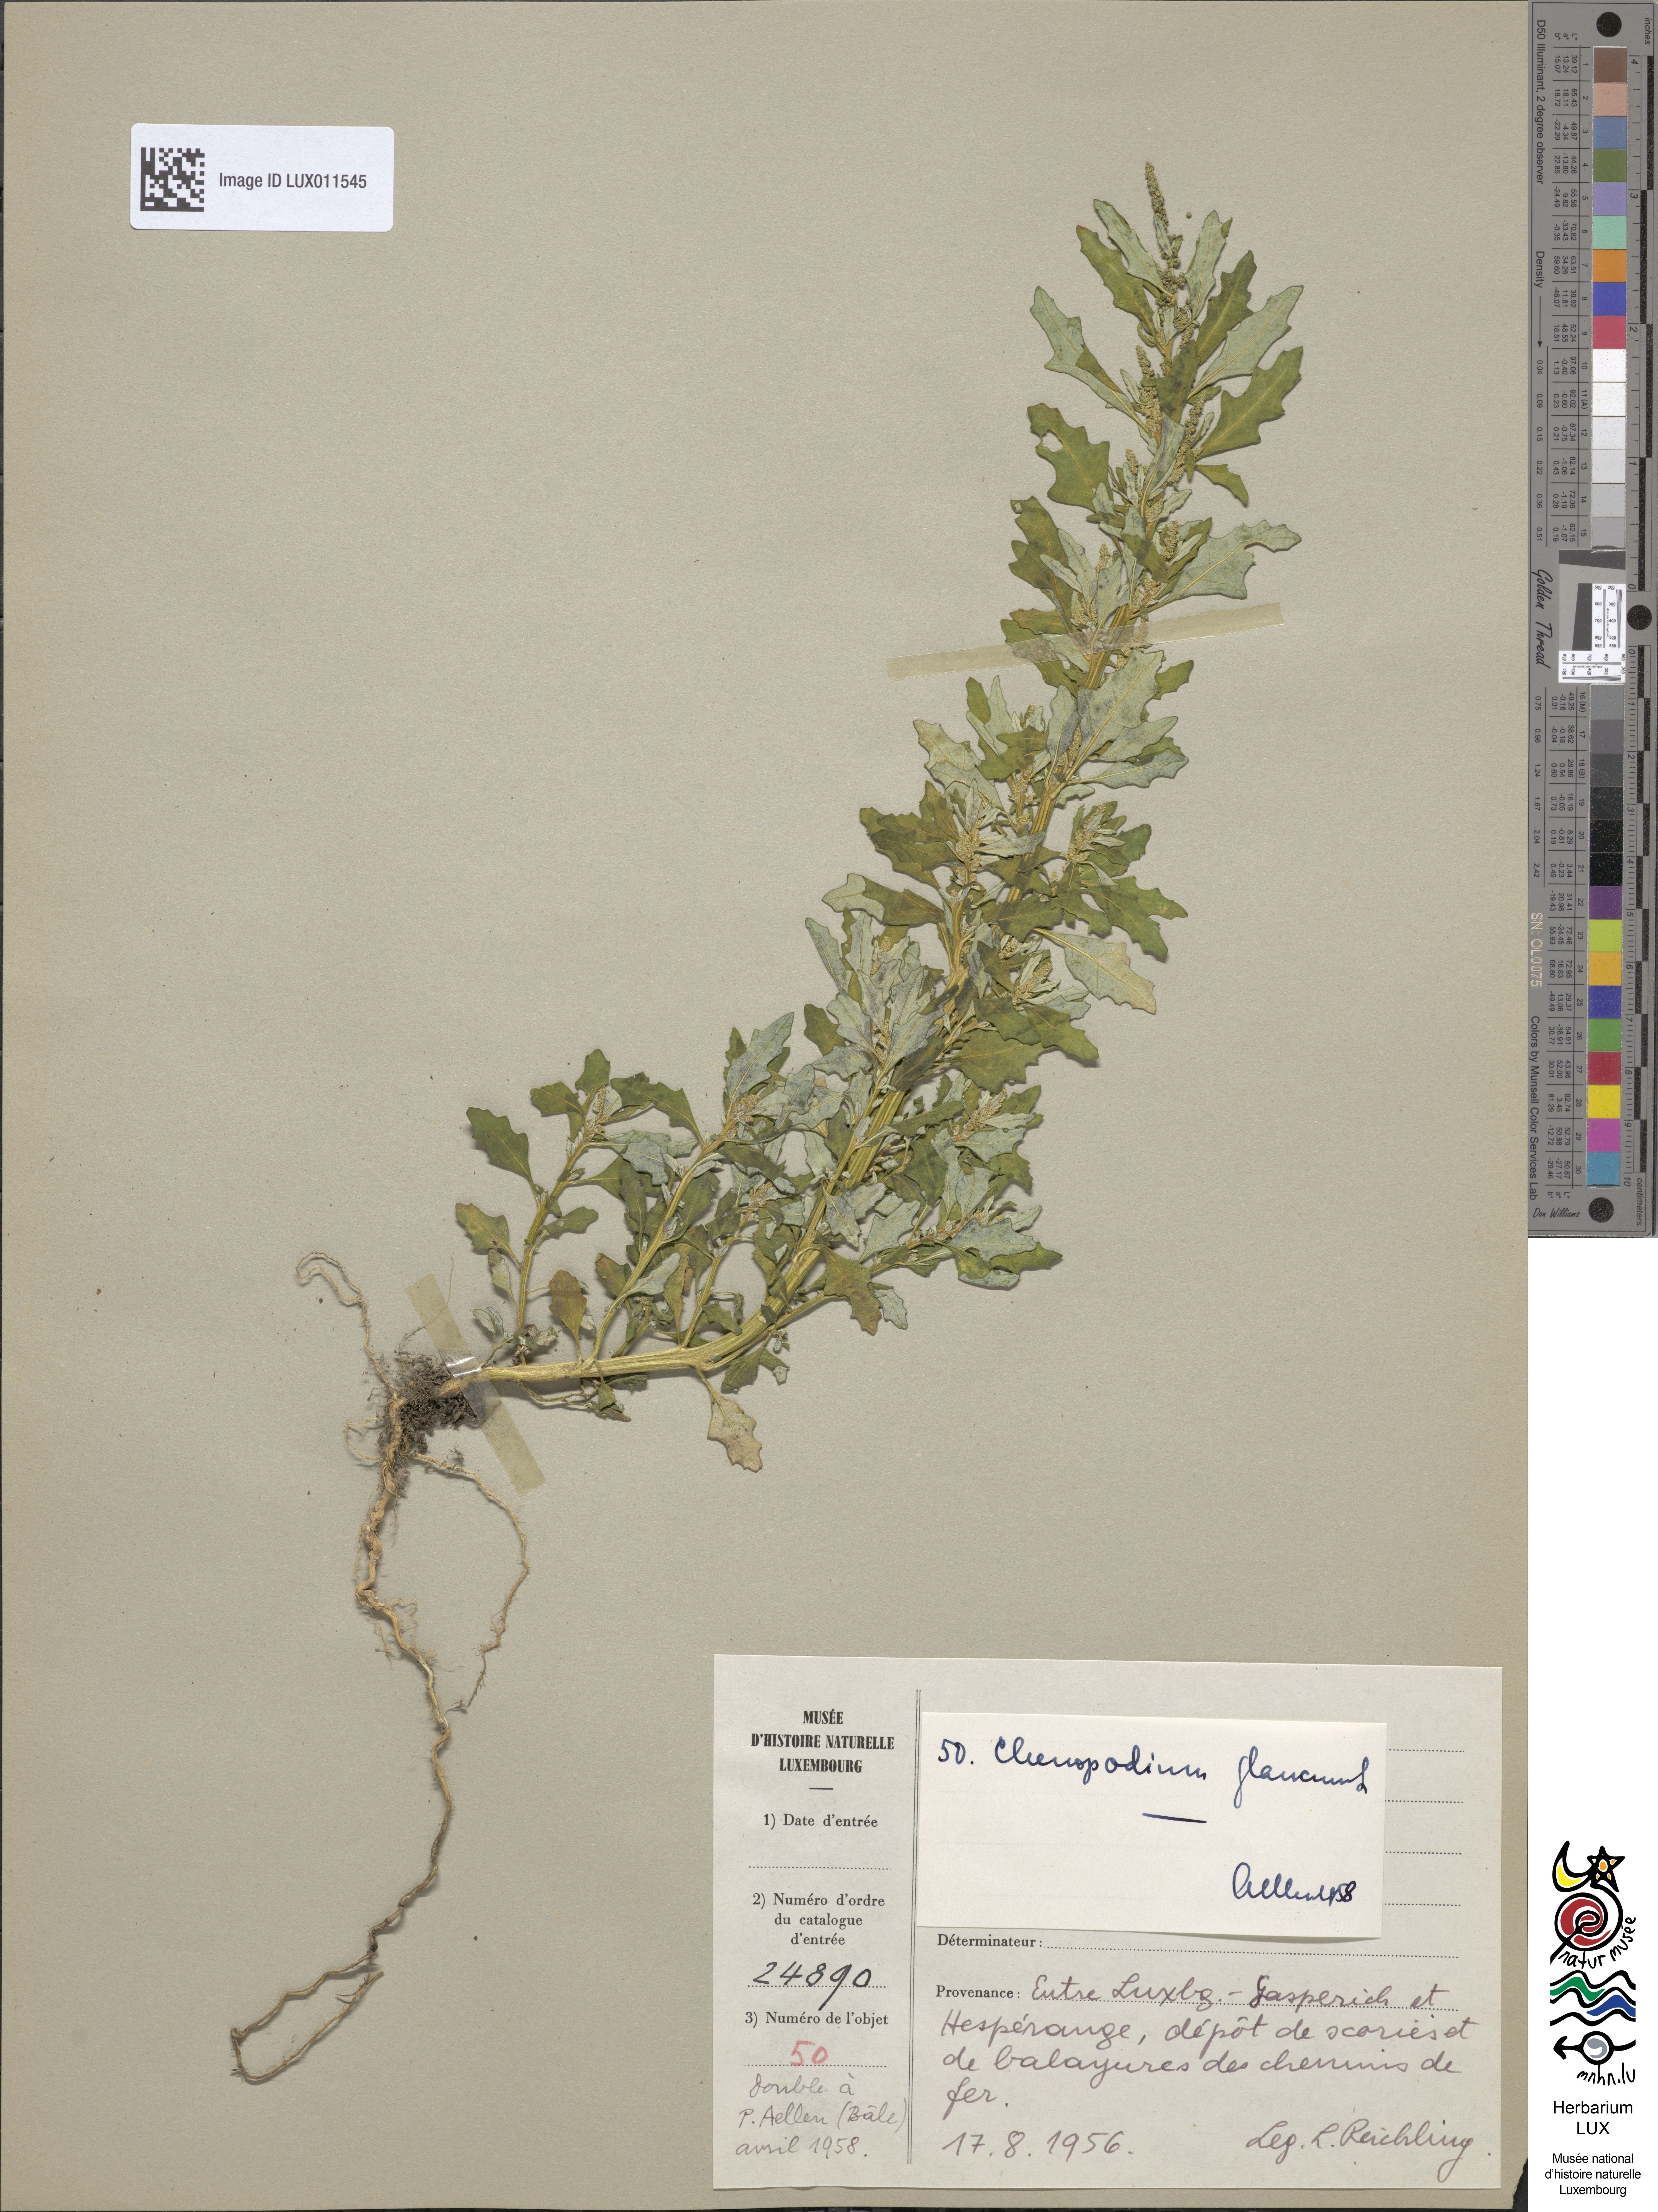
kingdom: Plantae
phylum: Tracheophyta
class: Magnoliopsida
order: Caryophyllales
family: Amaranthaceae
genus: Oxybasis
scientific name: Oxybasis glauca
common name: Glaucous goosefoot
